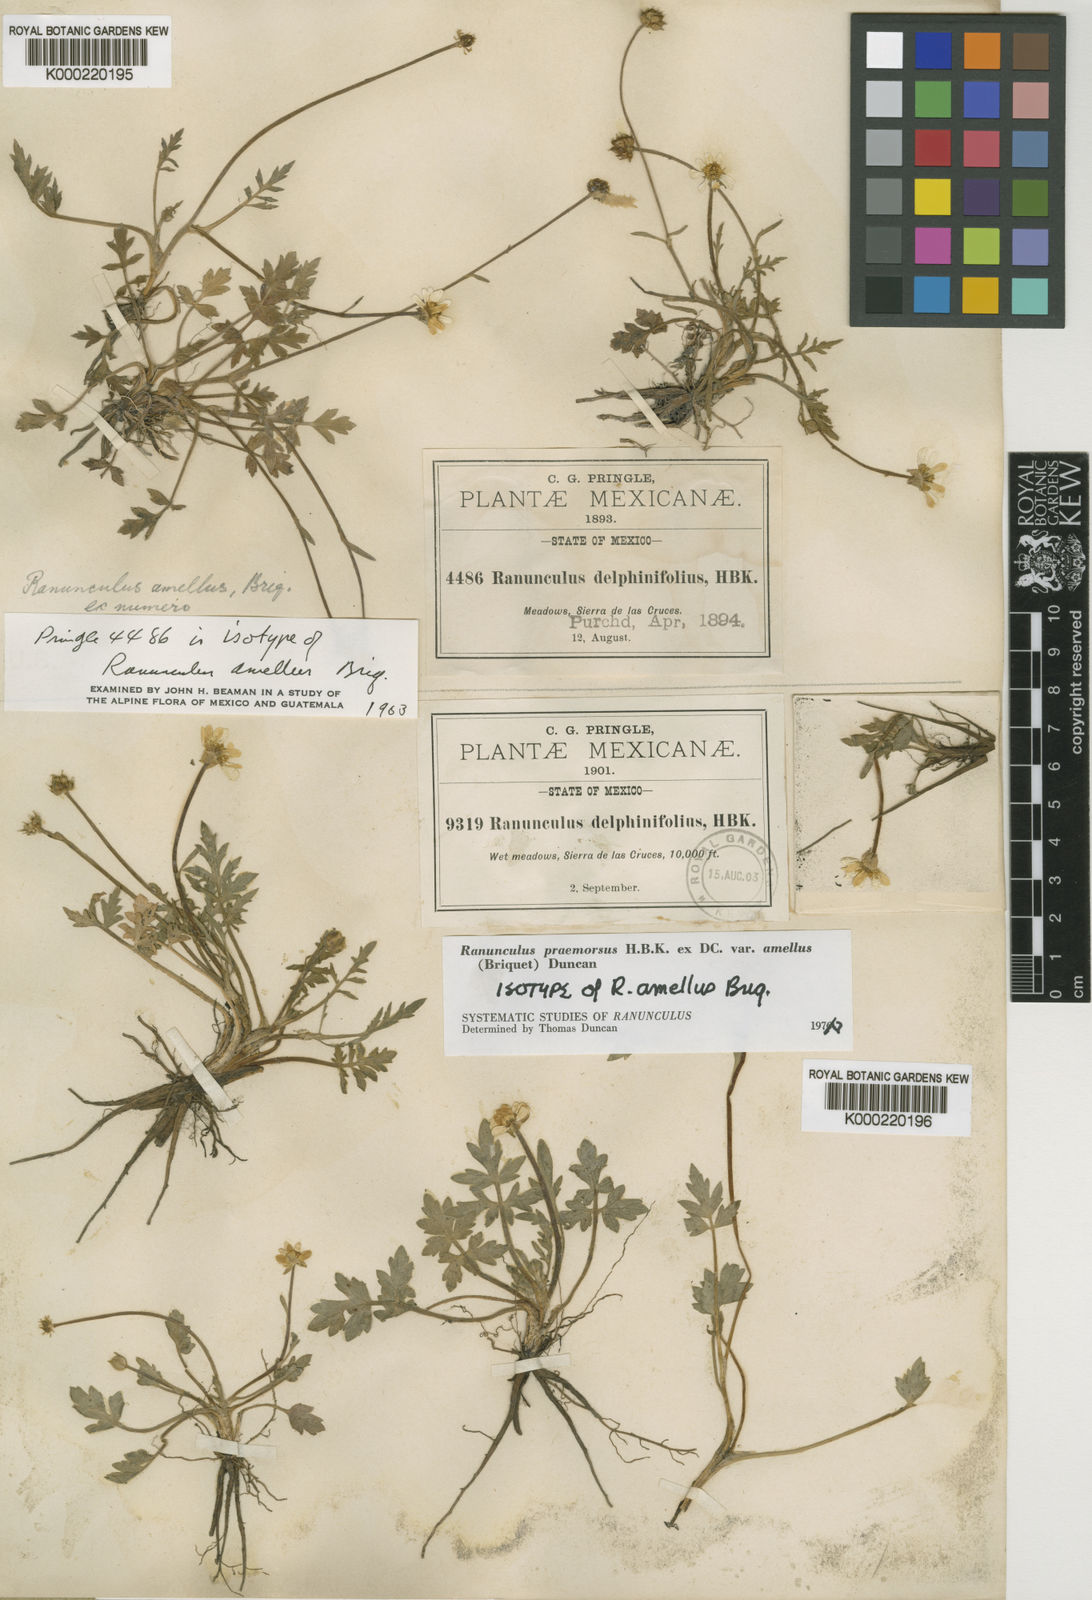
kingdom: Plantae
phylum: Tracheophyta
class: Magnoliopsida
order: Ranunculales
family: Ranunculaceae
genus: Ranunculus
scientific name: Ranunculus praemorsus
